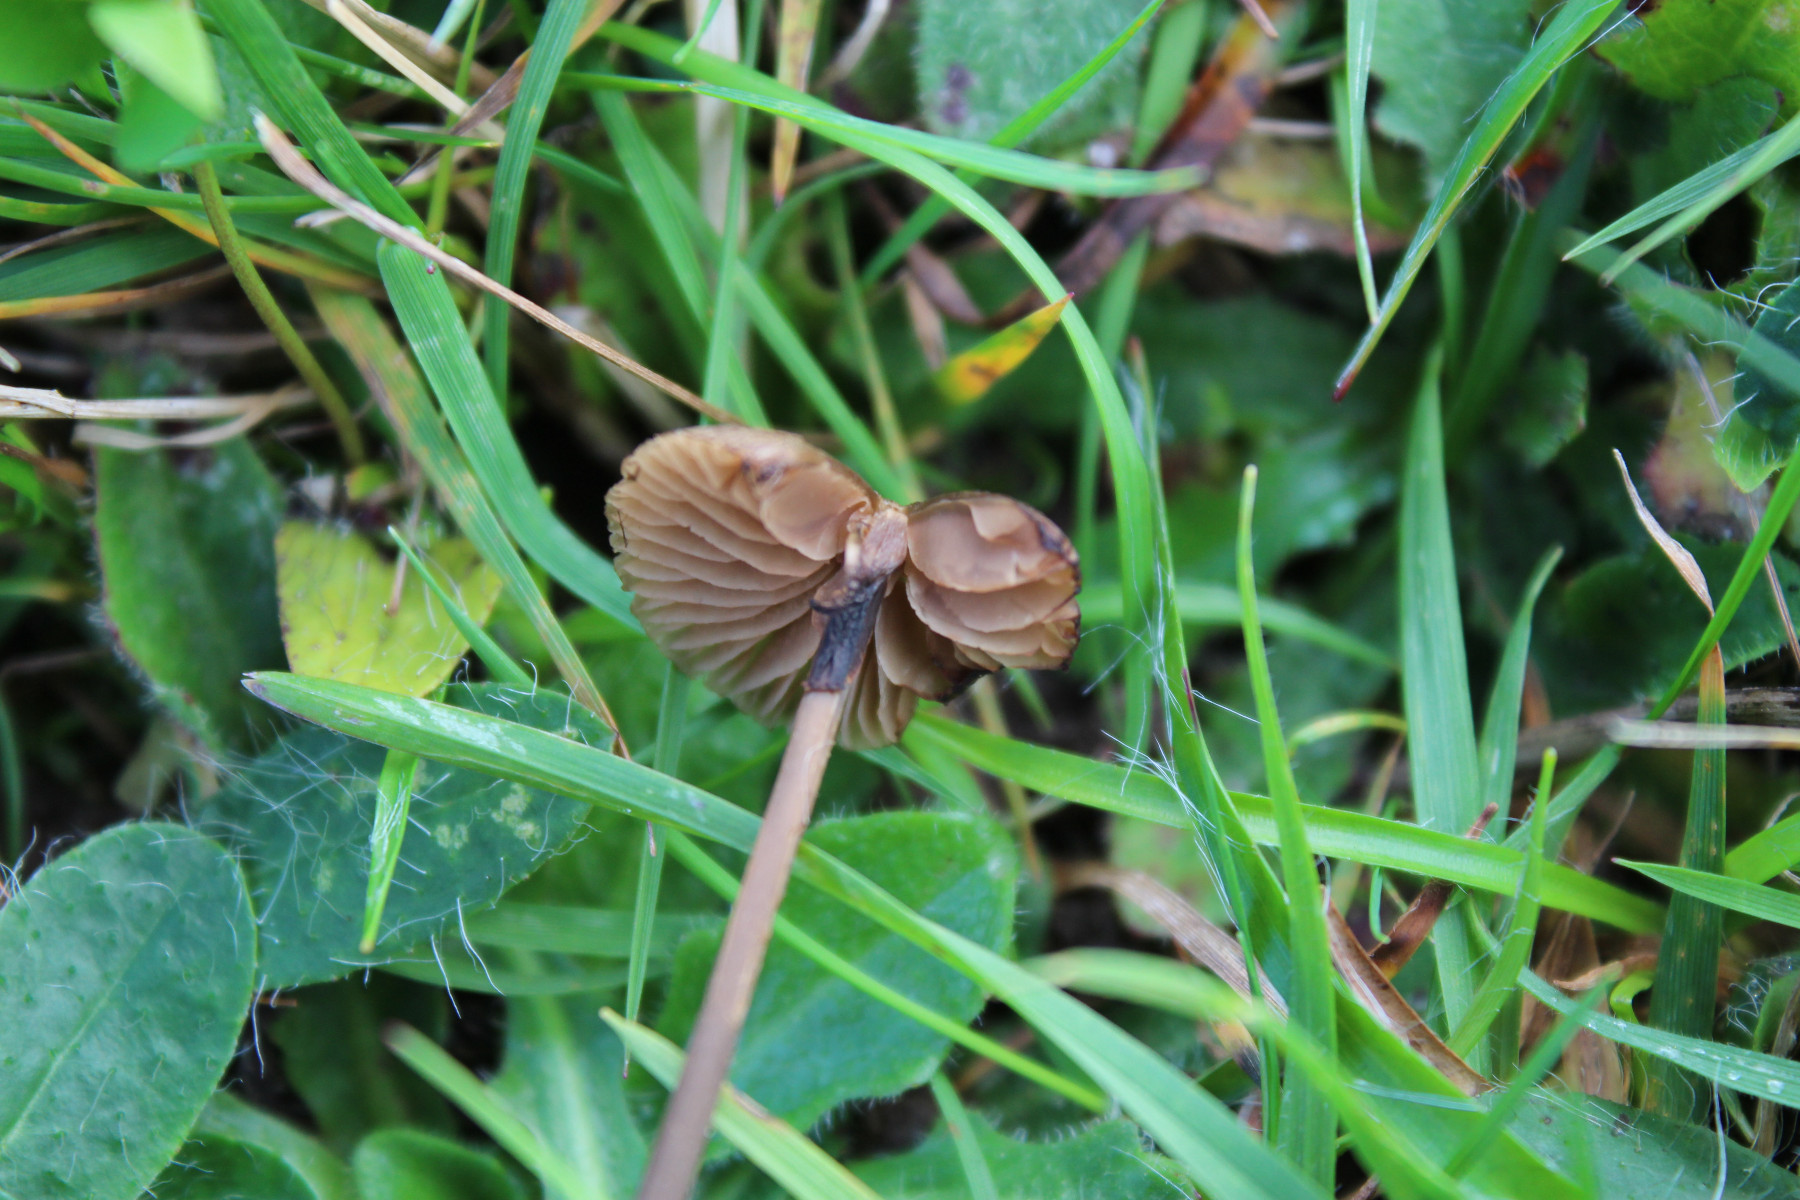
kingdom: Fungi
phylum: Basidiomycota
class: Agaricomycetes
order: Agaricales
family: Entolomataceae
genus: Entoloma
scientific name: Entoloma
